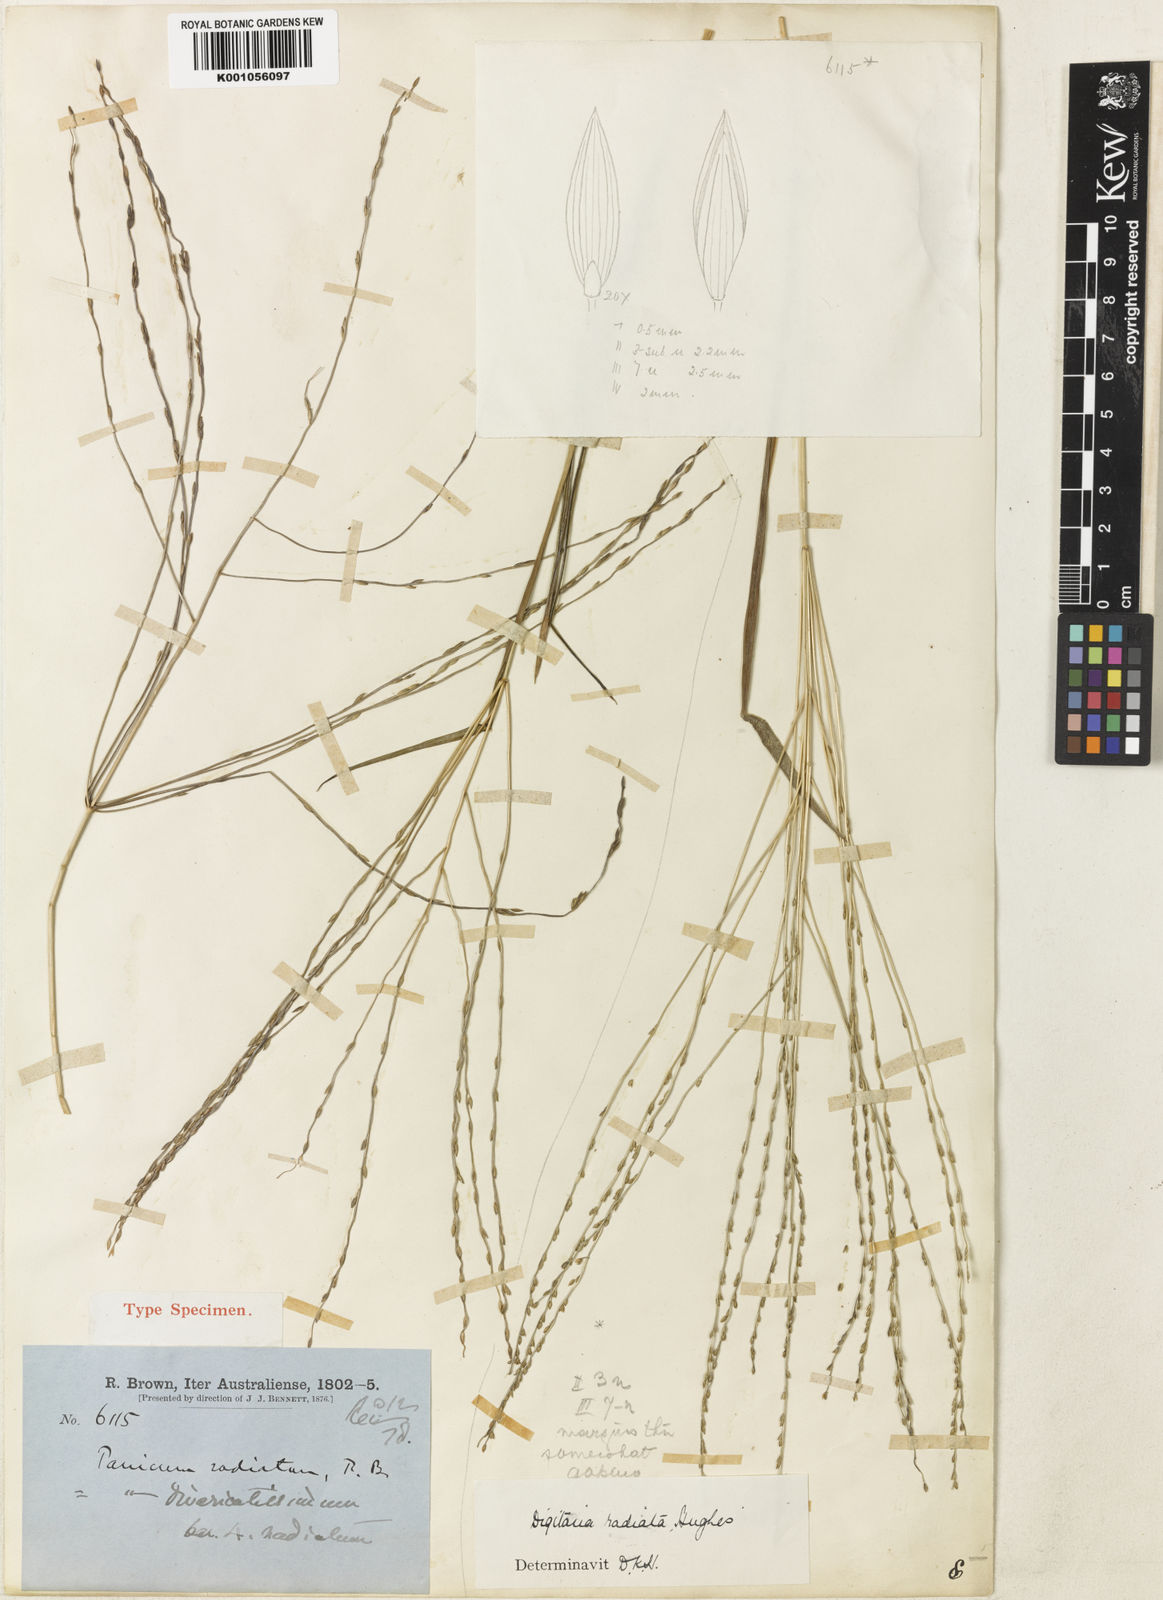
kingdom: Plantae
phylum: Tracheophyta
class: Liliopsida
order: Poales
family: Poaceae
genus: Digitaria
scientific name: Digitaria ammophila
